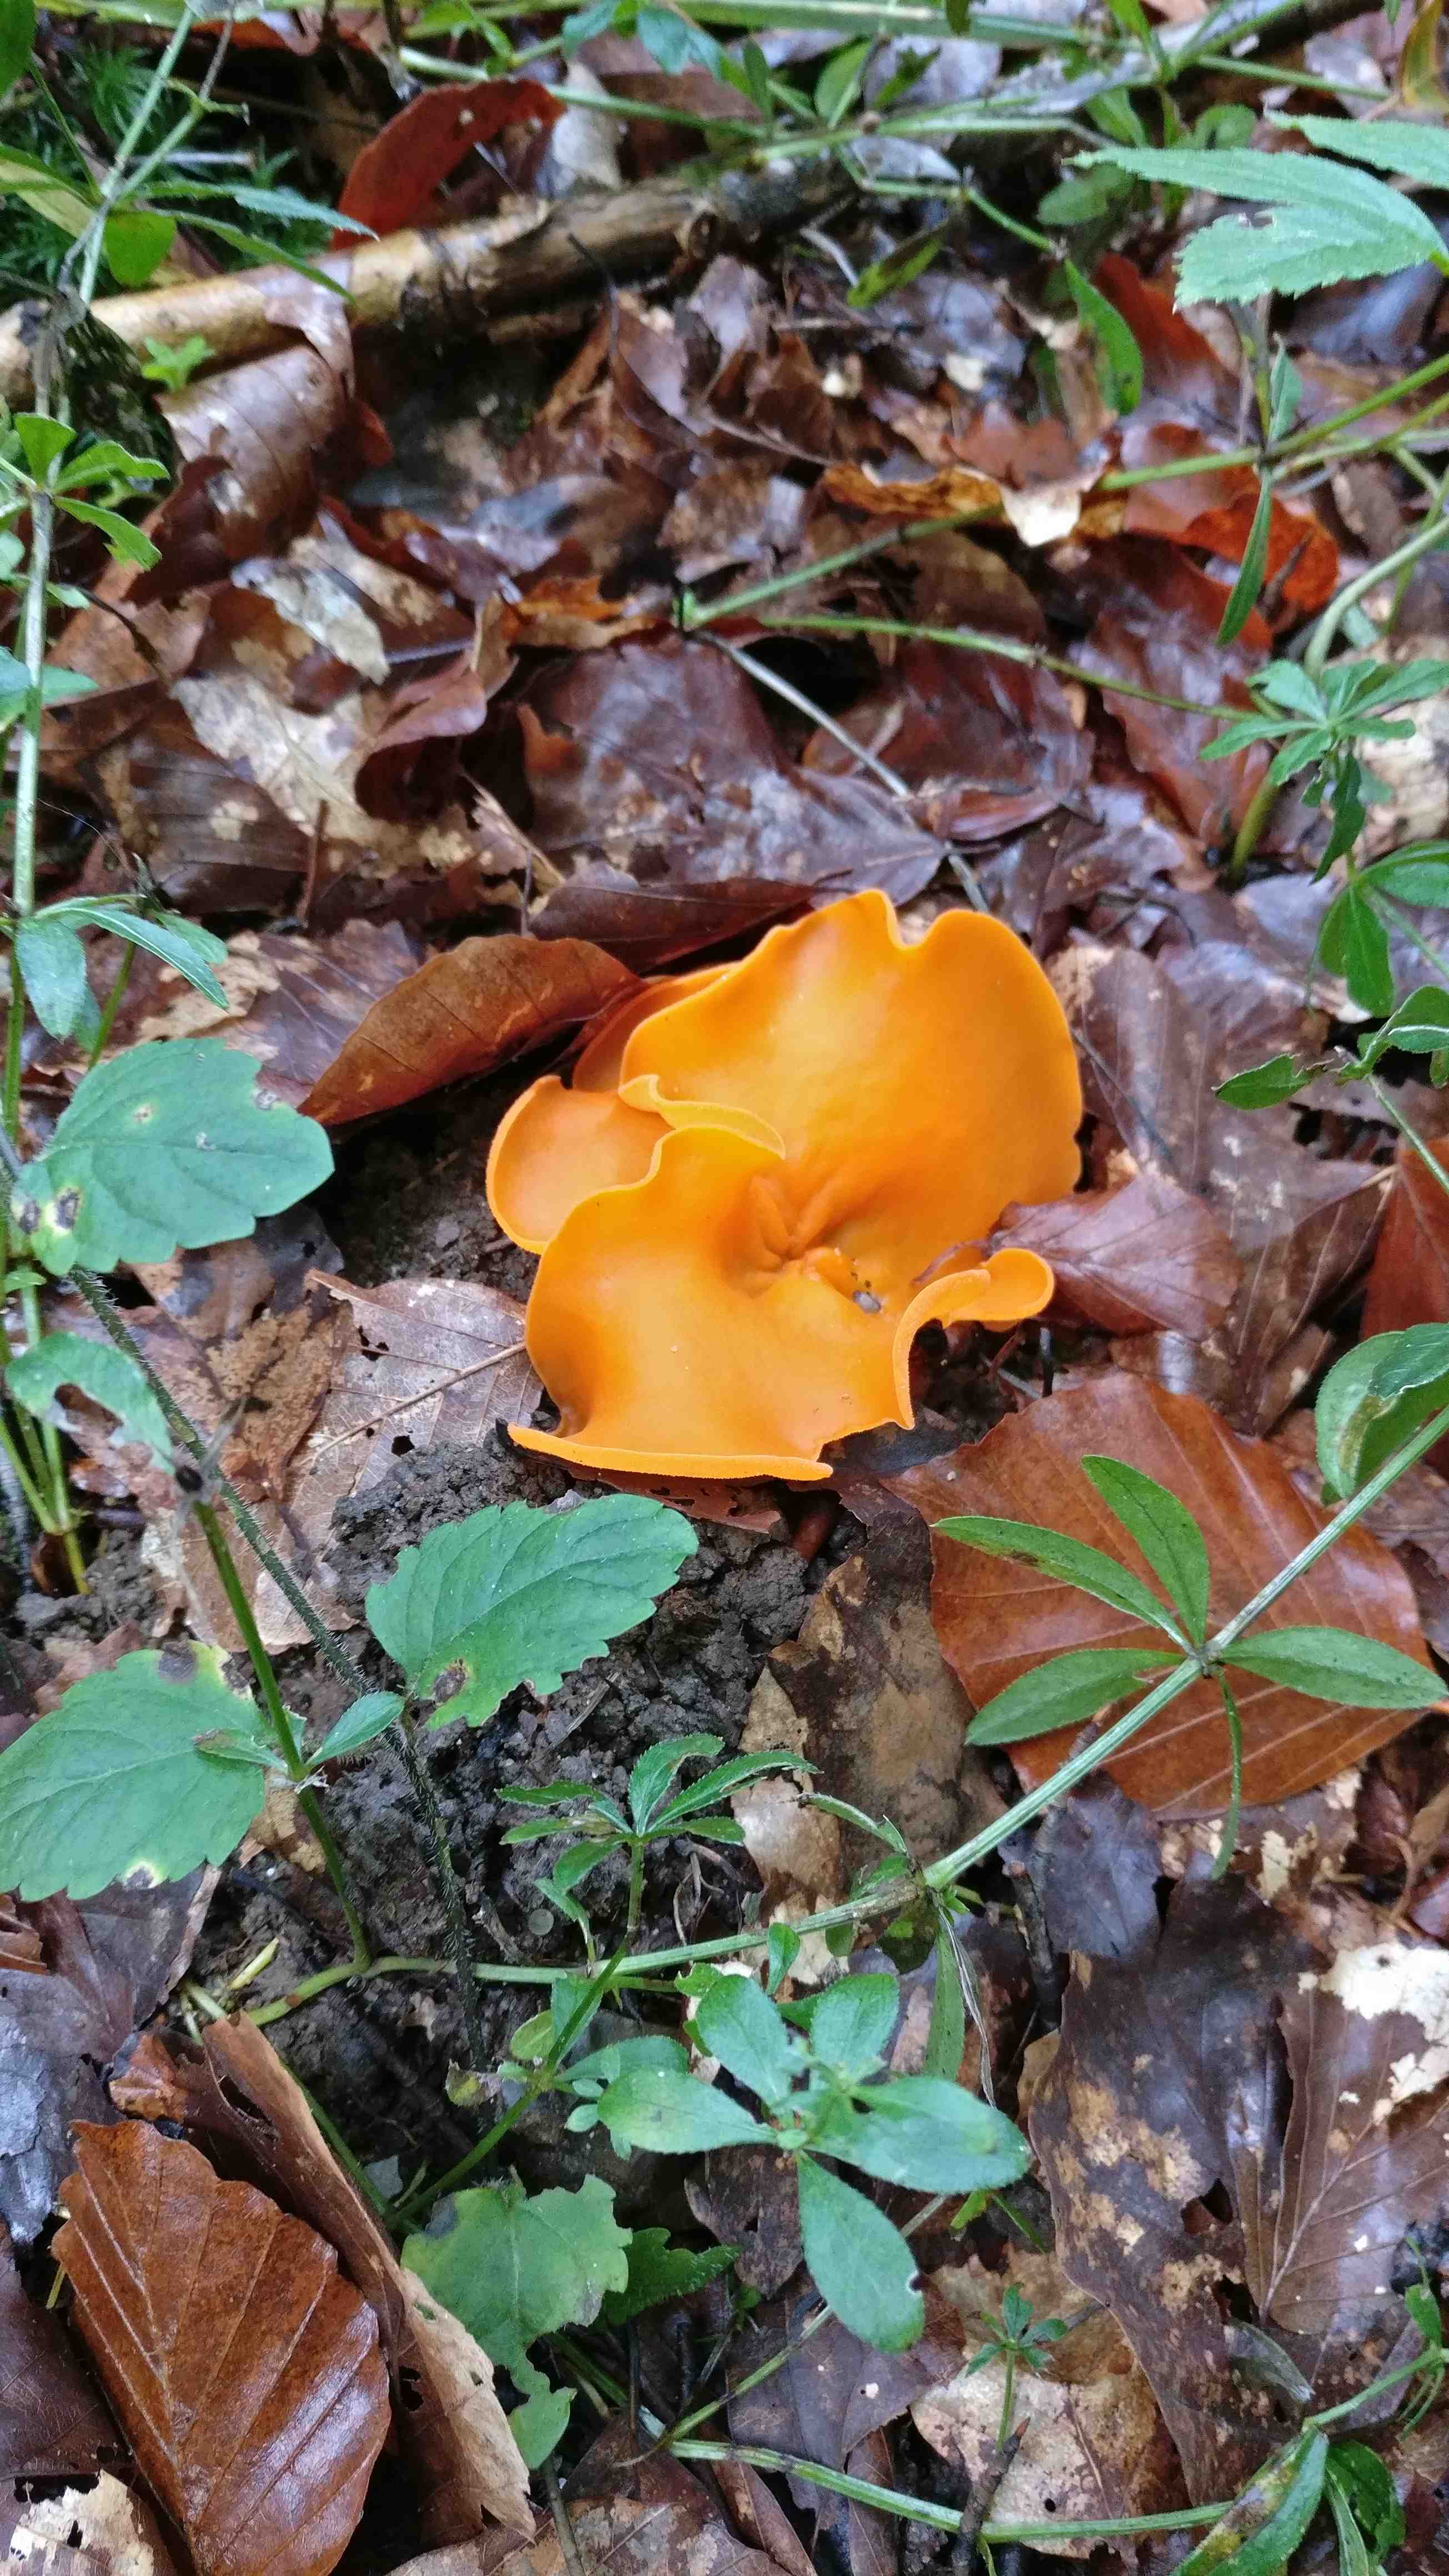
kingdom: Fungi
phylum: Ascomycota
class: Pezizomycetes
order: Pezizales
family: Pyronemataceae
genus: Aleuria
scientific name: Aleuria aurantia
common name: almindelig orangebæger
